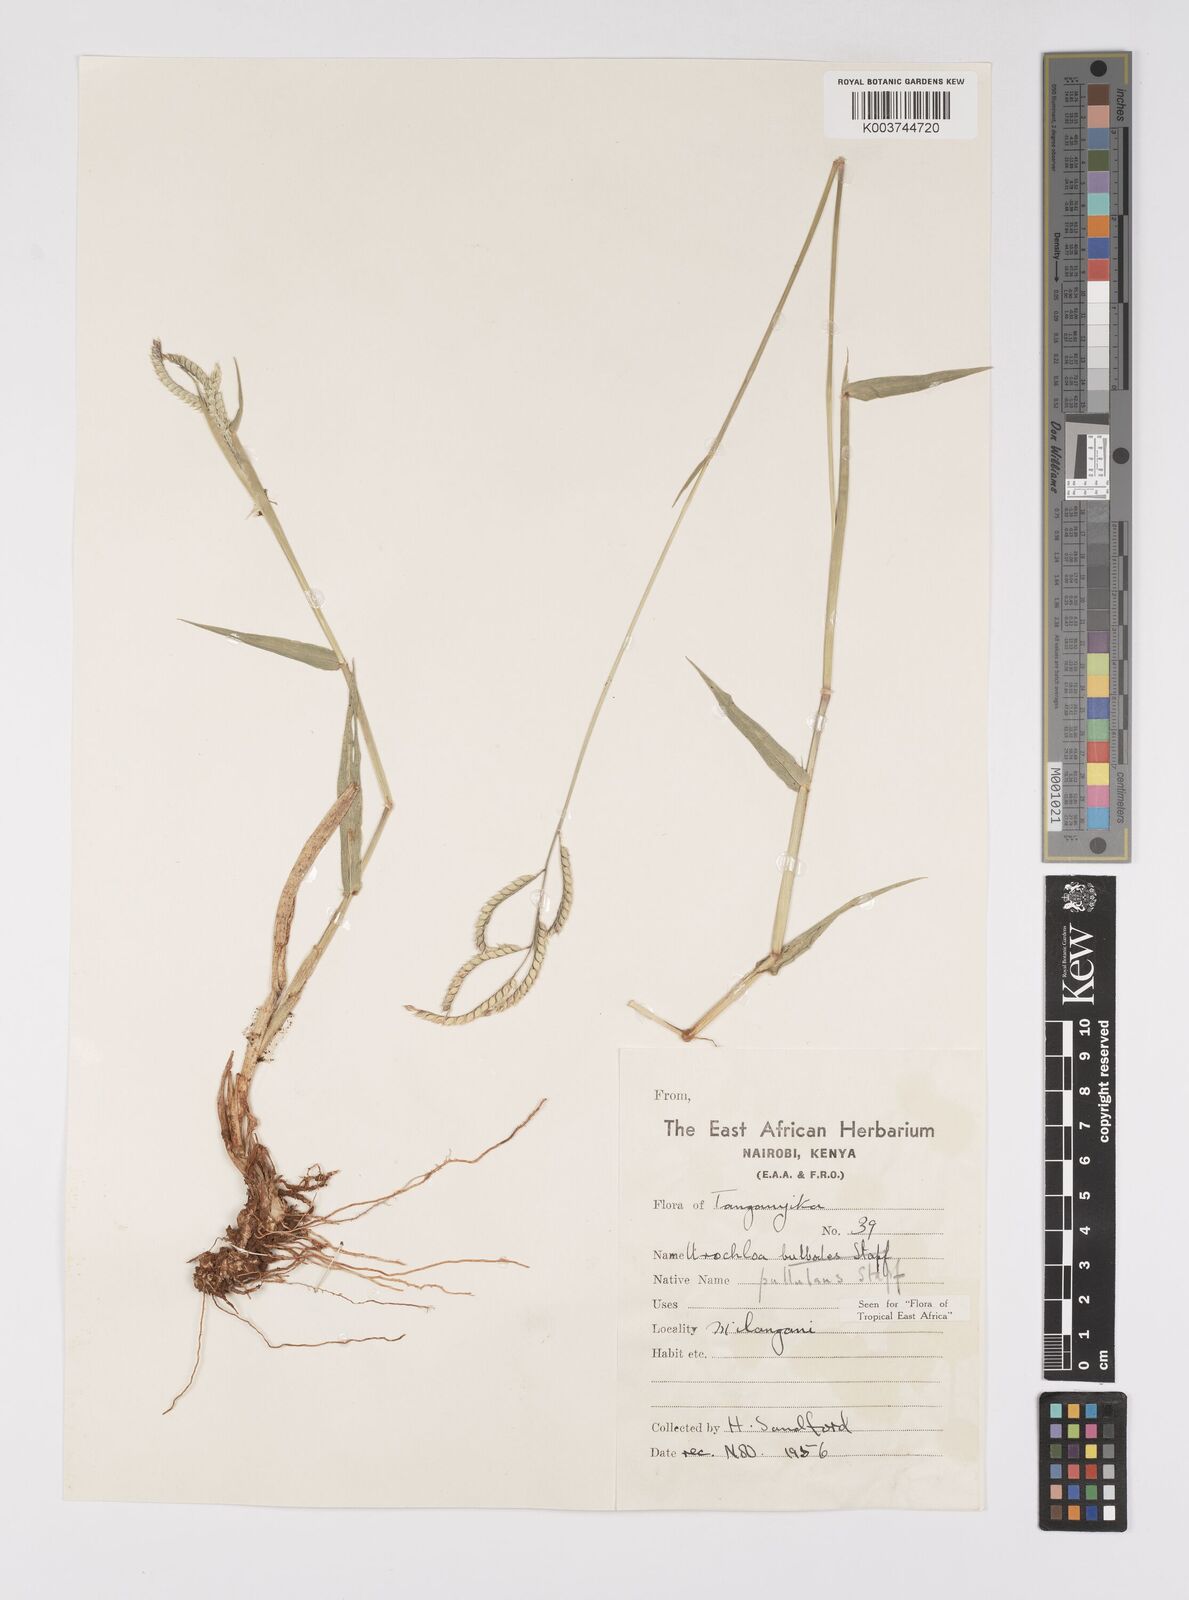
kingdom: Plantae
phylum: Tracheophyta
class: Liliopsida
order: Poales
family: Poaceae
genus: Urochloa
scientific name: Urochloa trichopus
